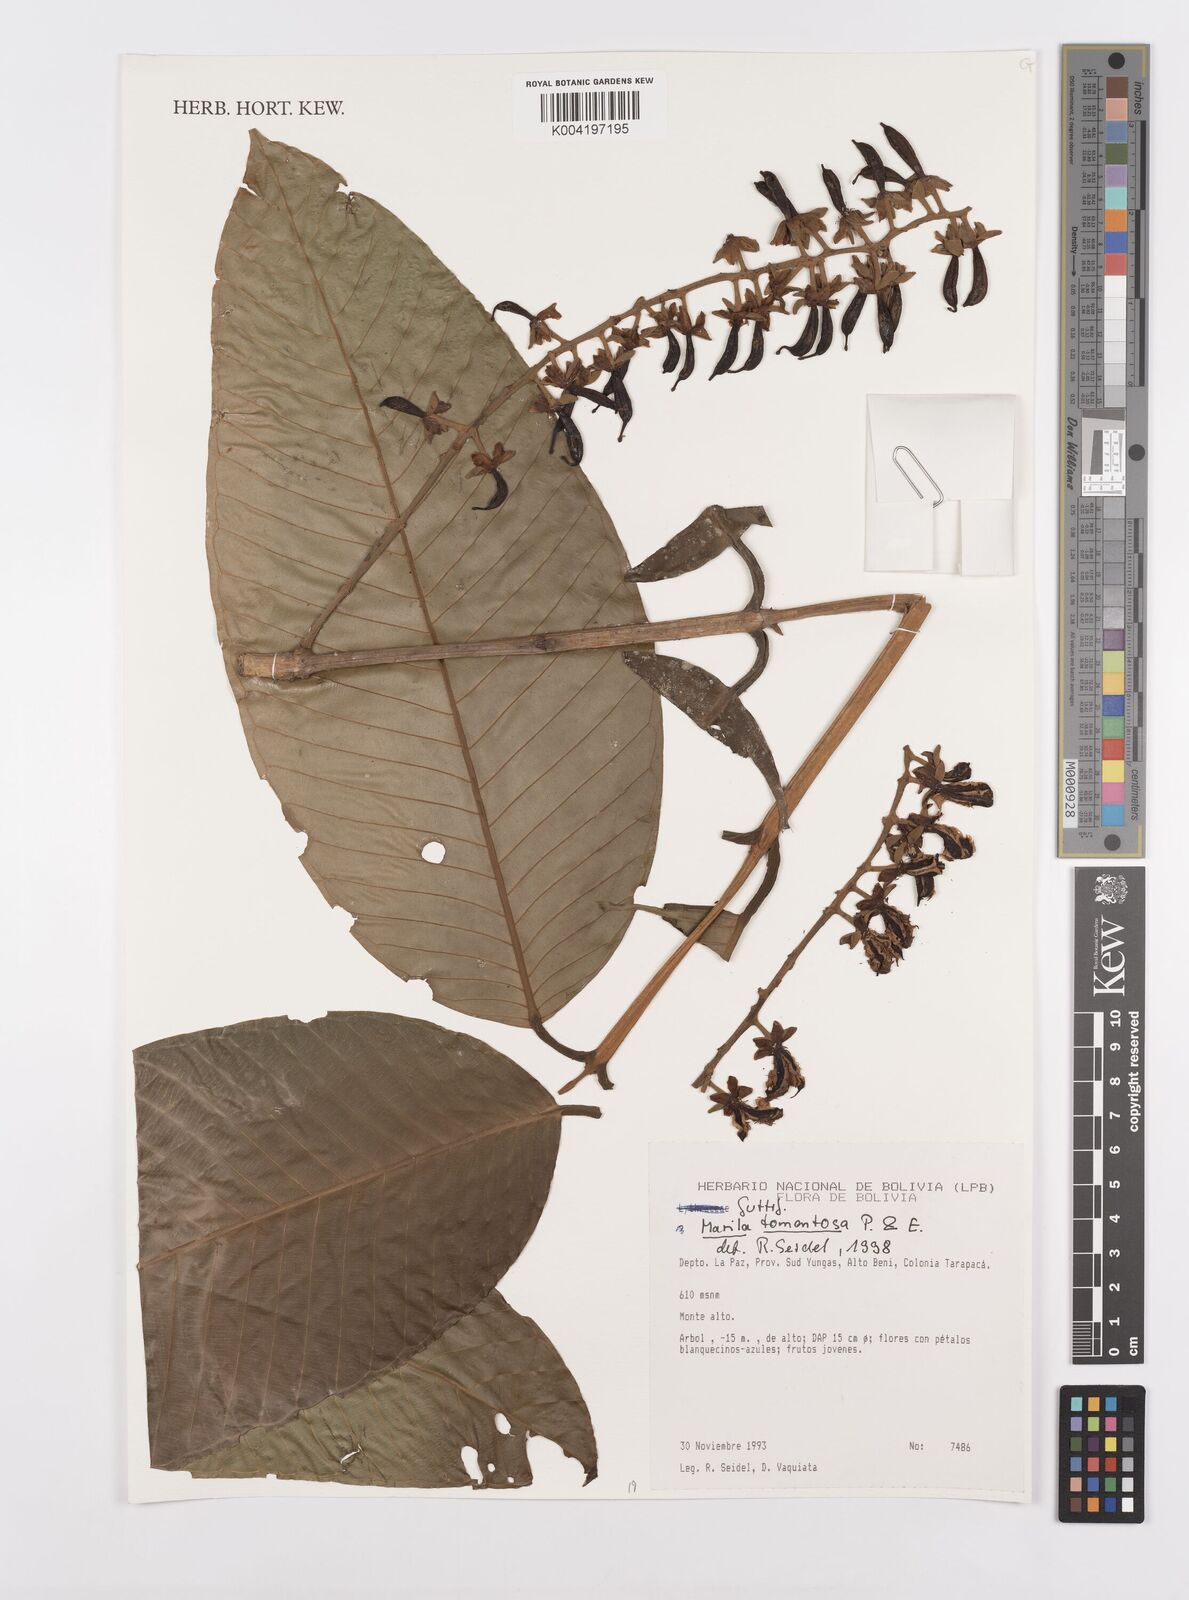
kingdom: Plantae
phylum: Tracheophyta
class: Magnoliopsida
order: Malpighiales
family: Calophyllaceae
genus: Marila
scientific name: Marila tomentosa
